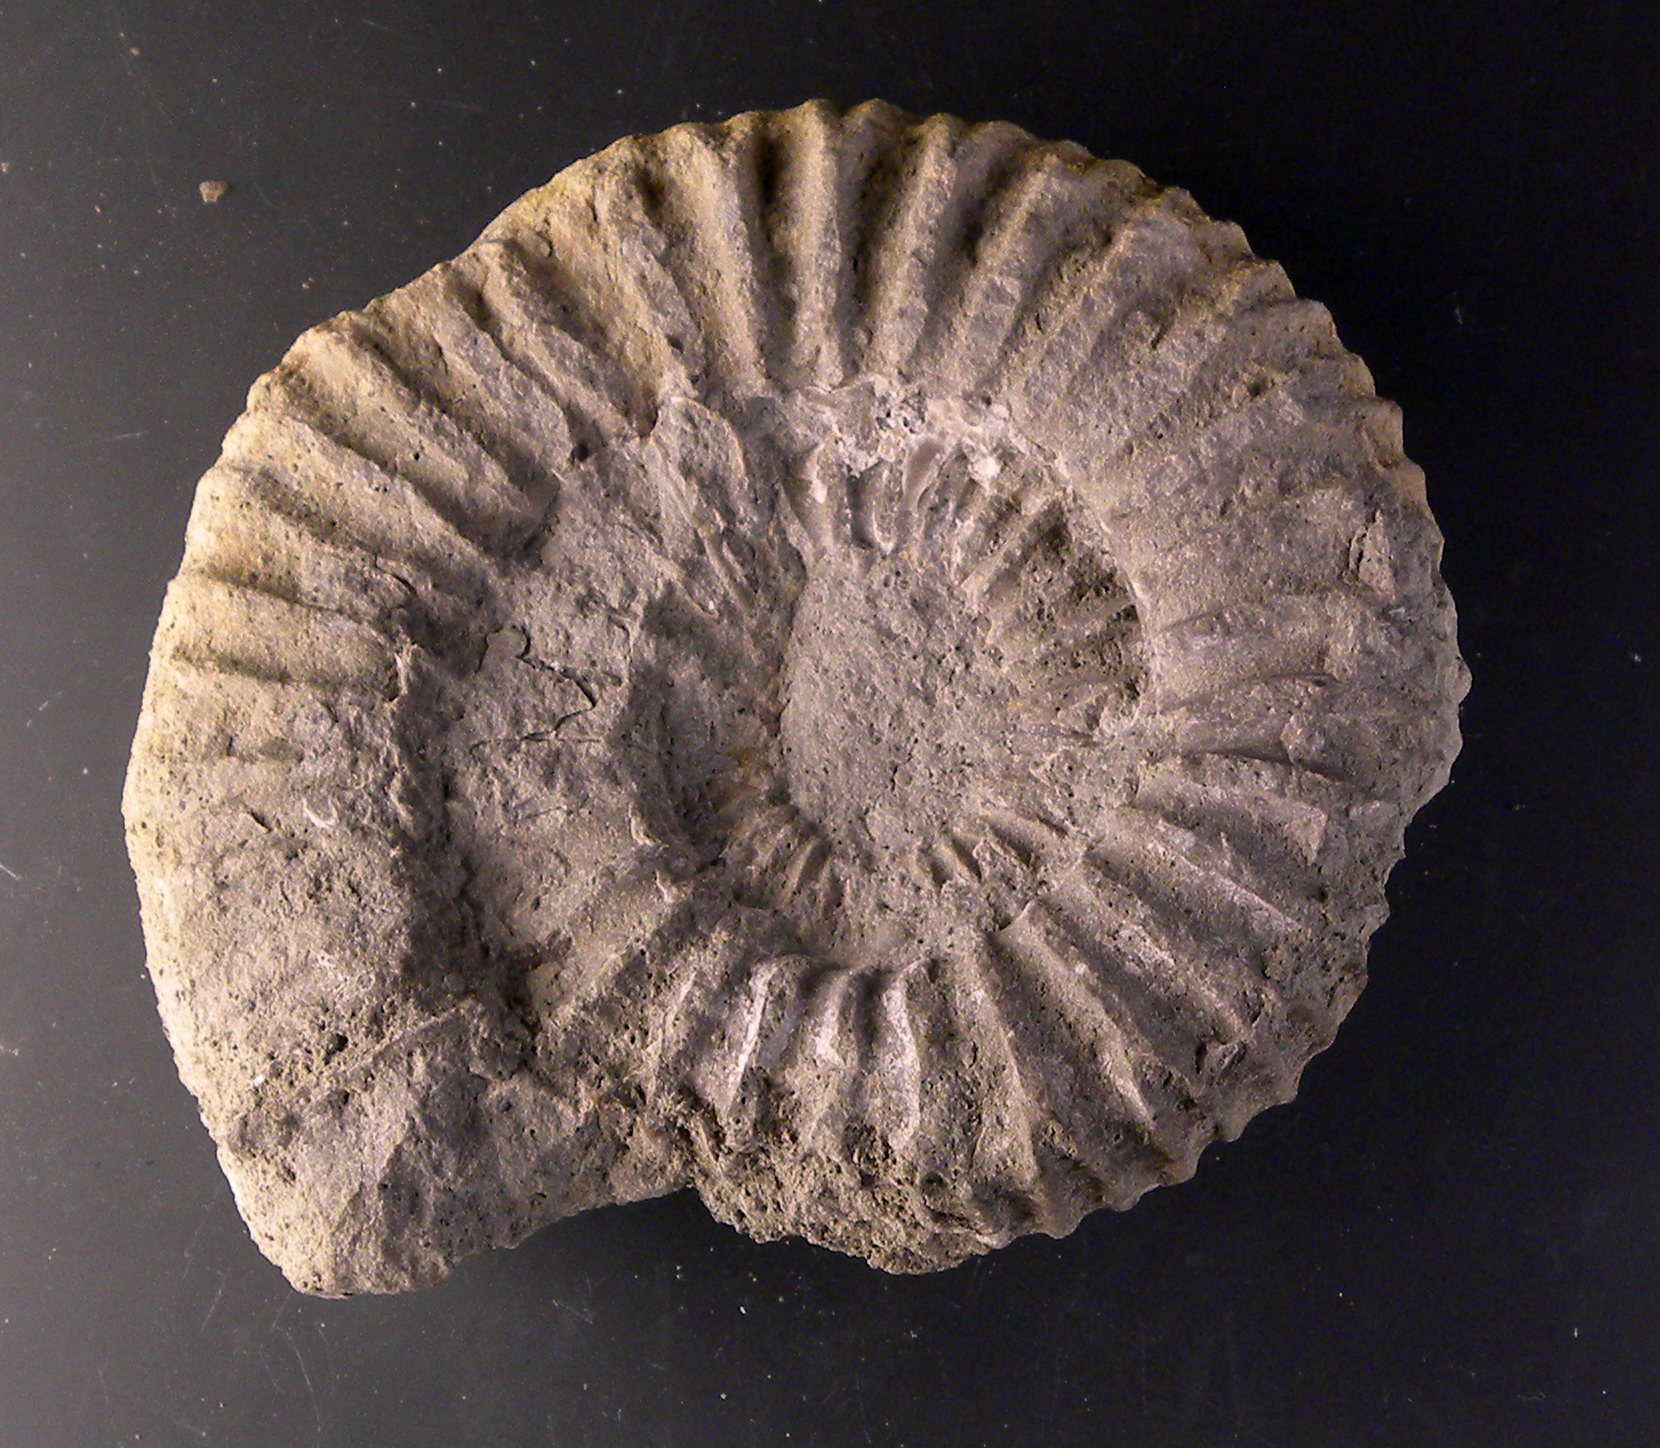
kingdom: Animalia
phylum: Mollusca
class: Cephalopoda
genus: Ammonites
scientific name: Ammonites biplex
